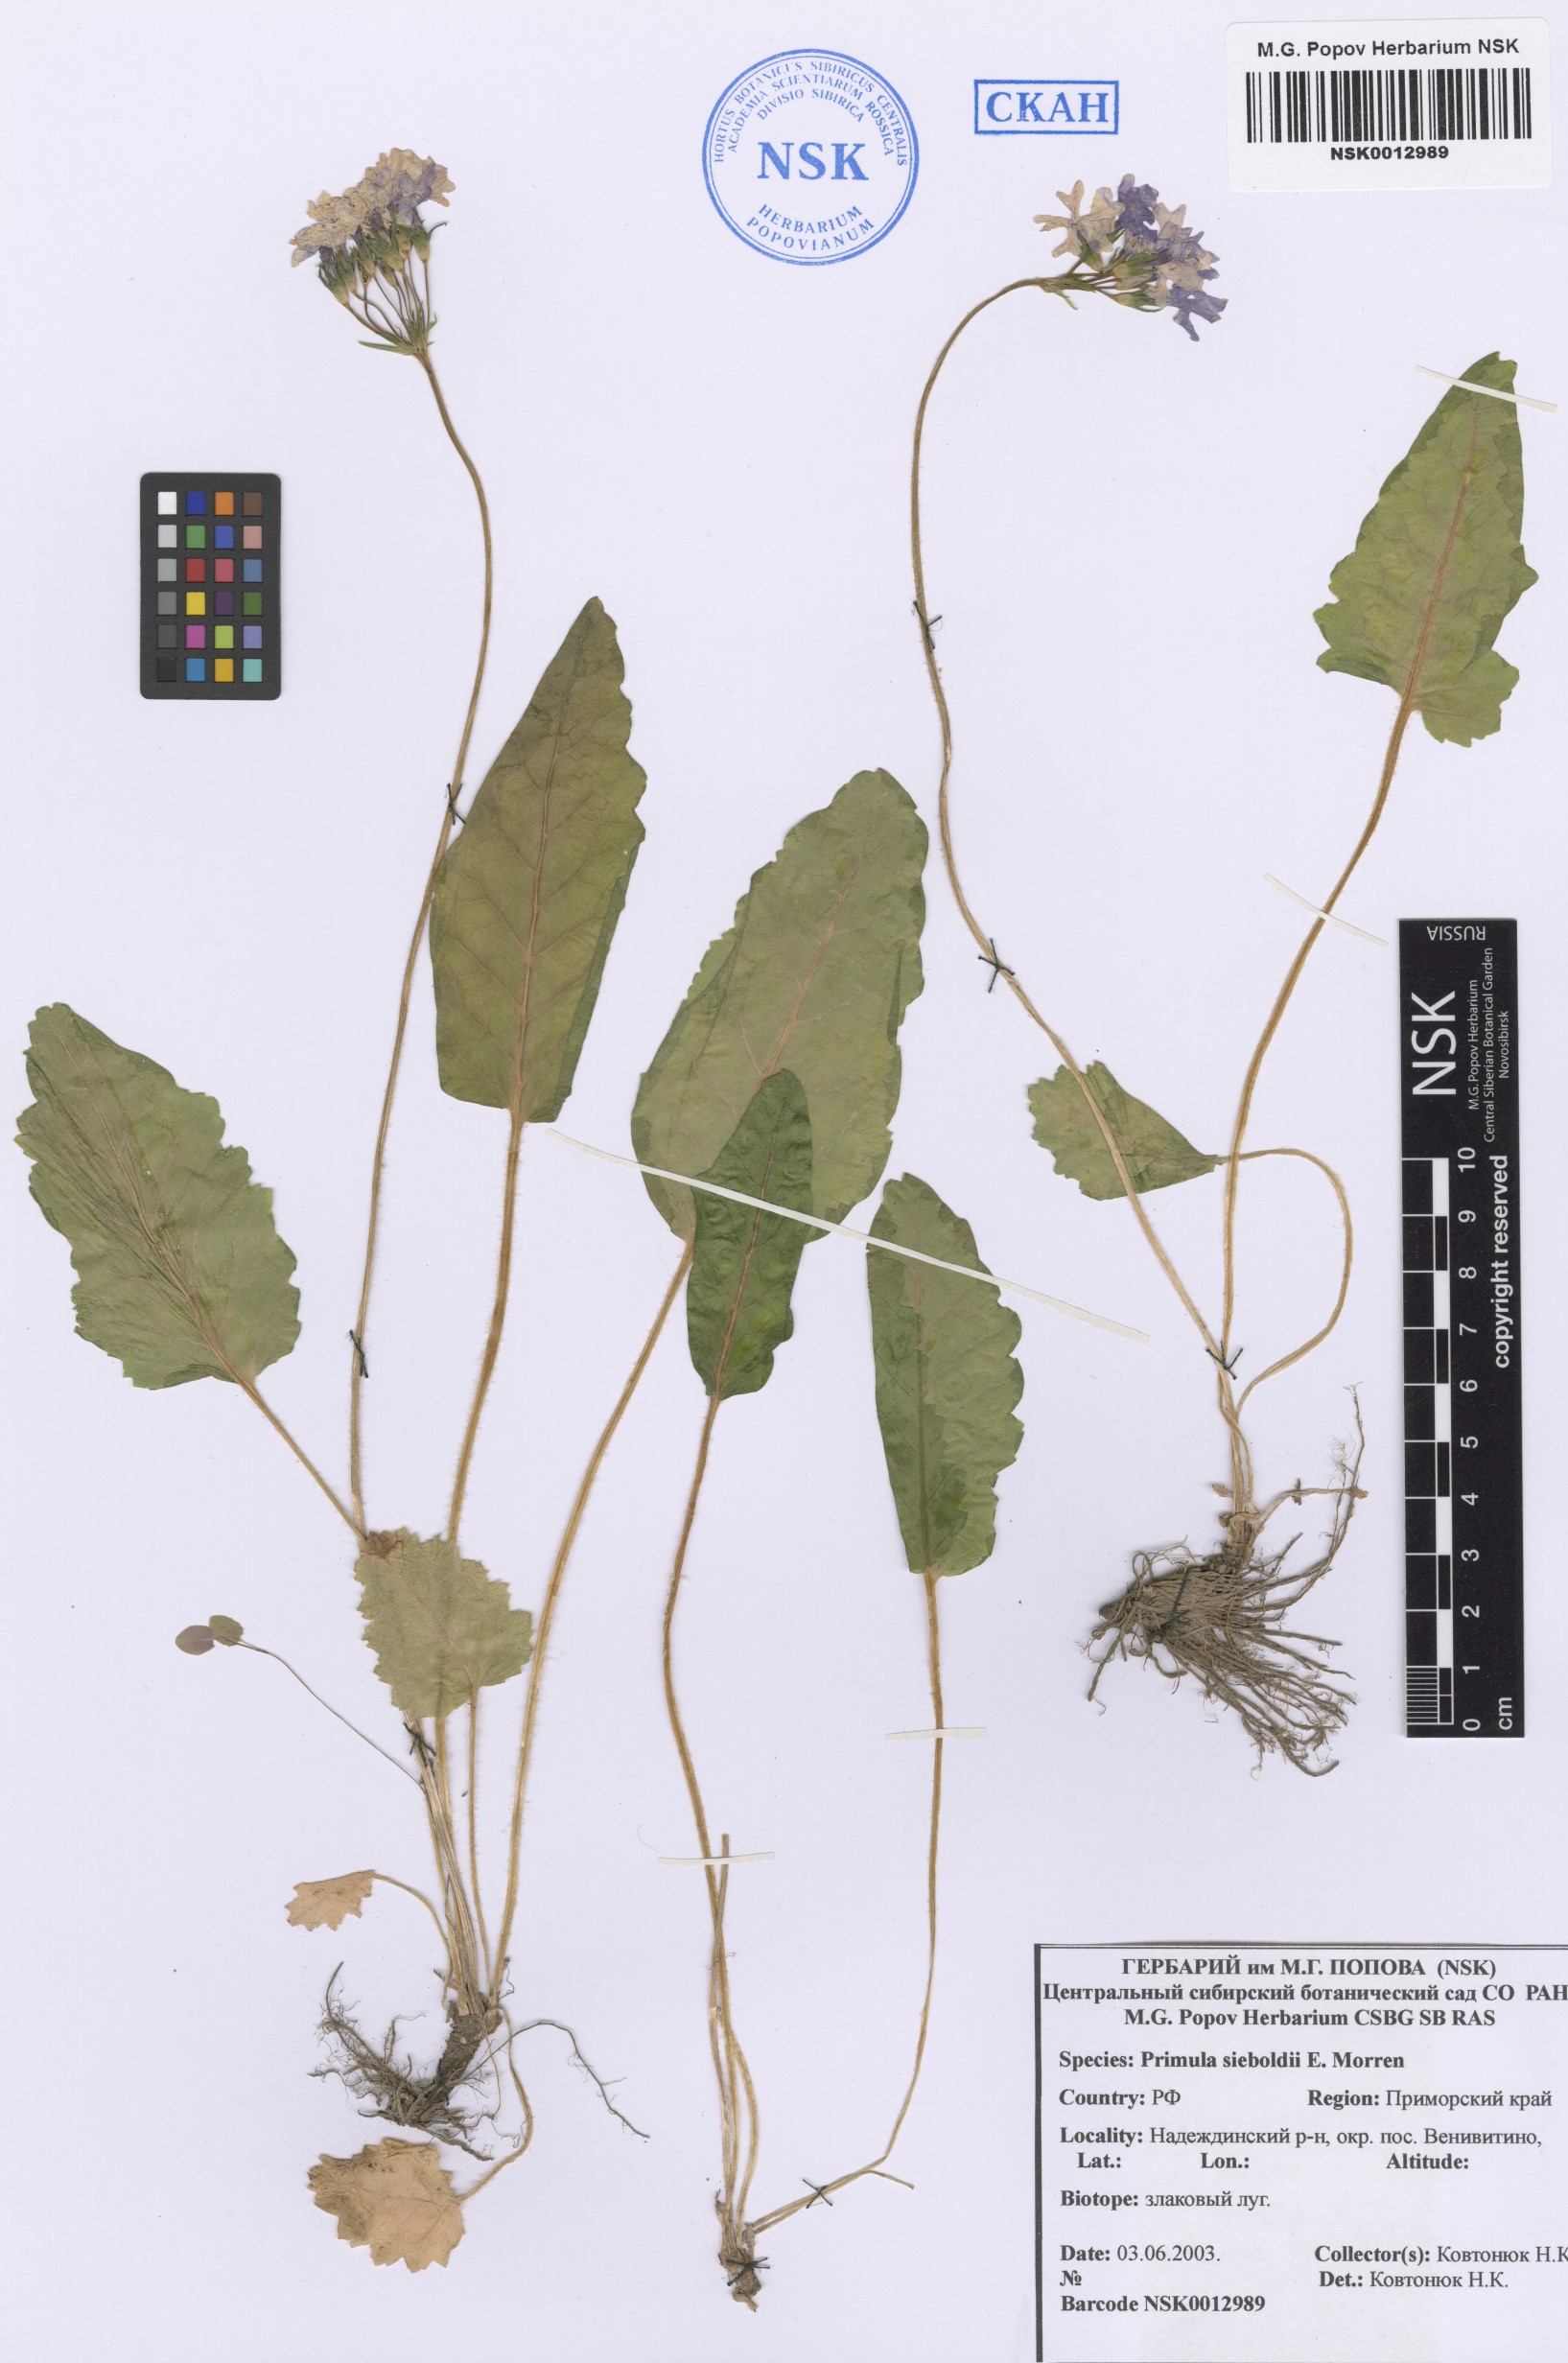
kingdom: Plantae
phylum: Tracheophyta
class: Magnoliopsida
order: Ericales
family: Primulaceae
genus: Primula
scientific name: Primula sieboldii
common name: Japanese primrose
